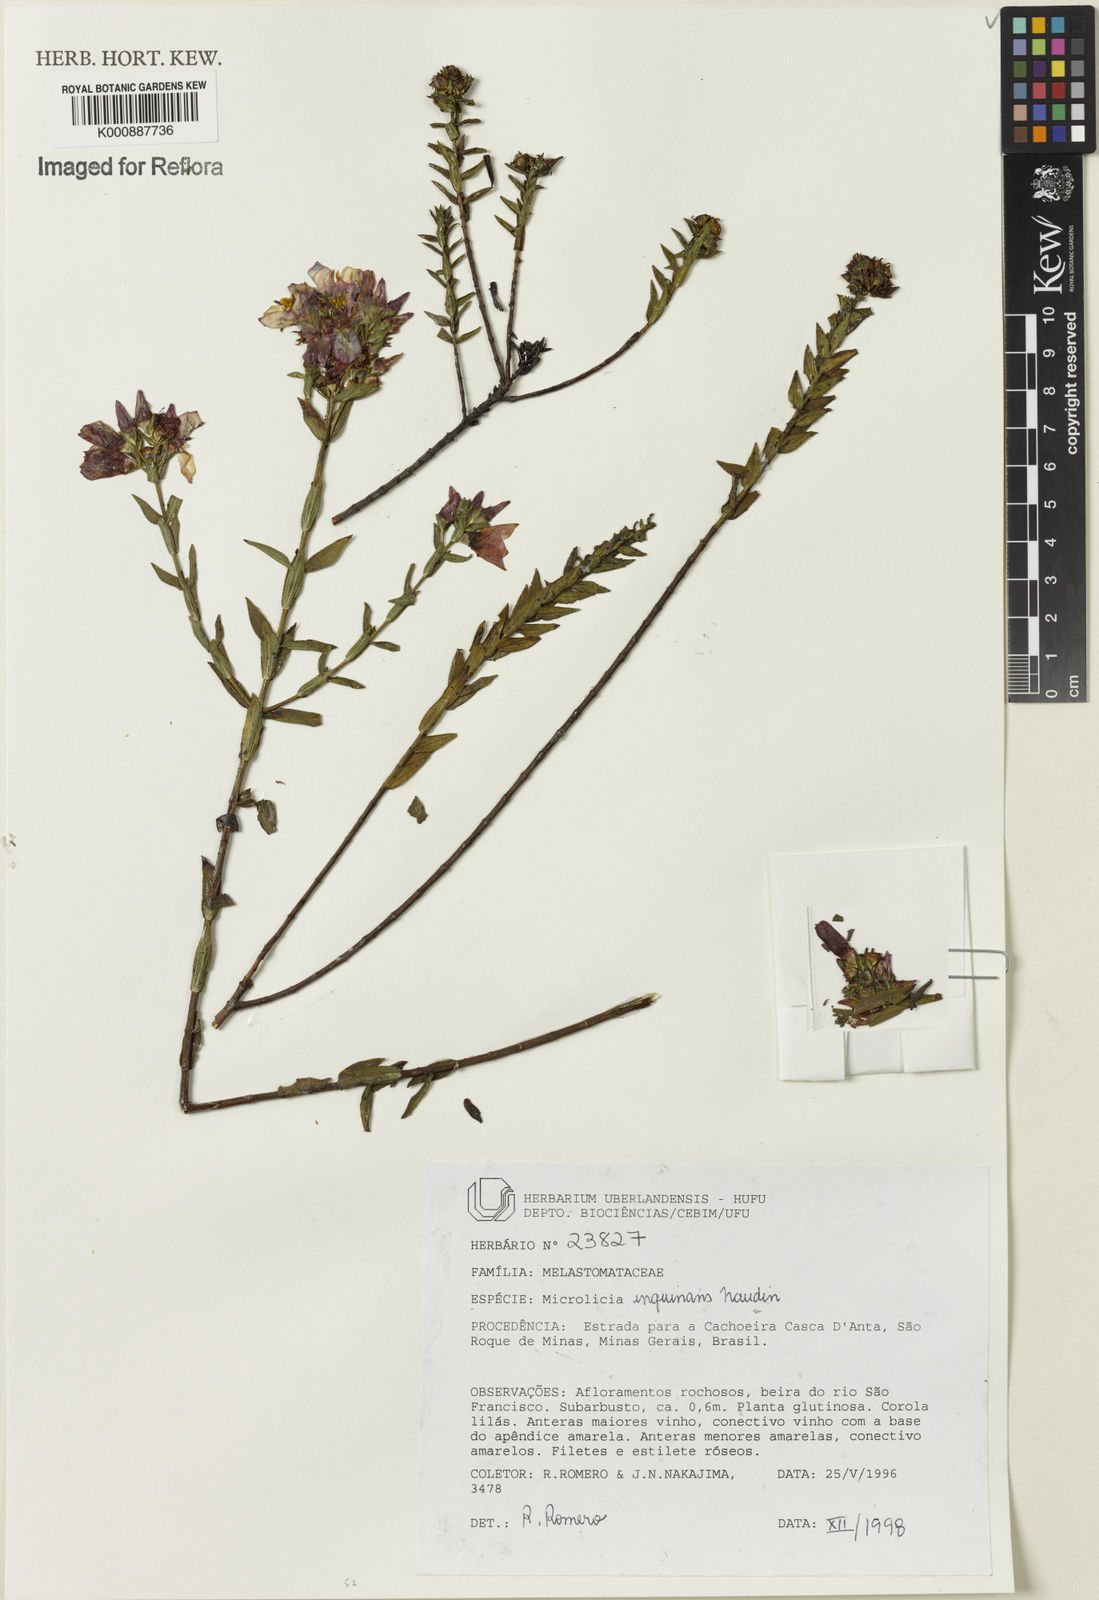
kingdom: Plantae
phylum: Tracheophyta
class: Magnoliopsida
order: Myrtales
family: Melastomataceae
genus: Microlicia
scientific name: Microlicia inquinans
